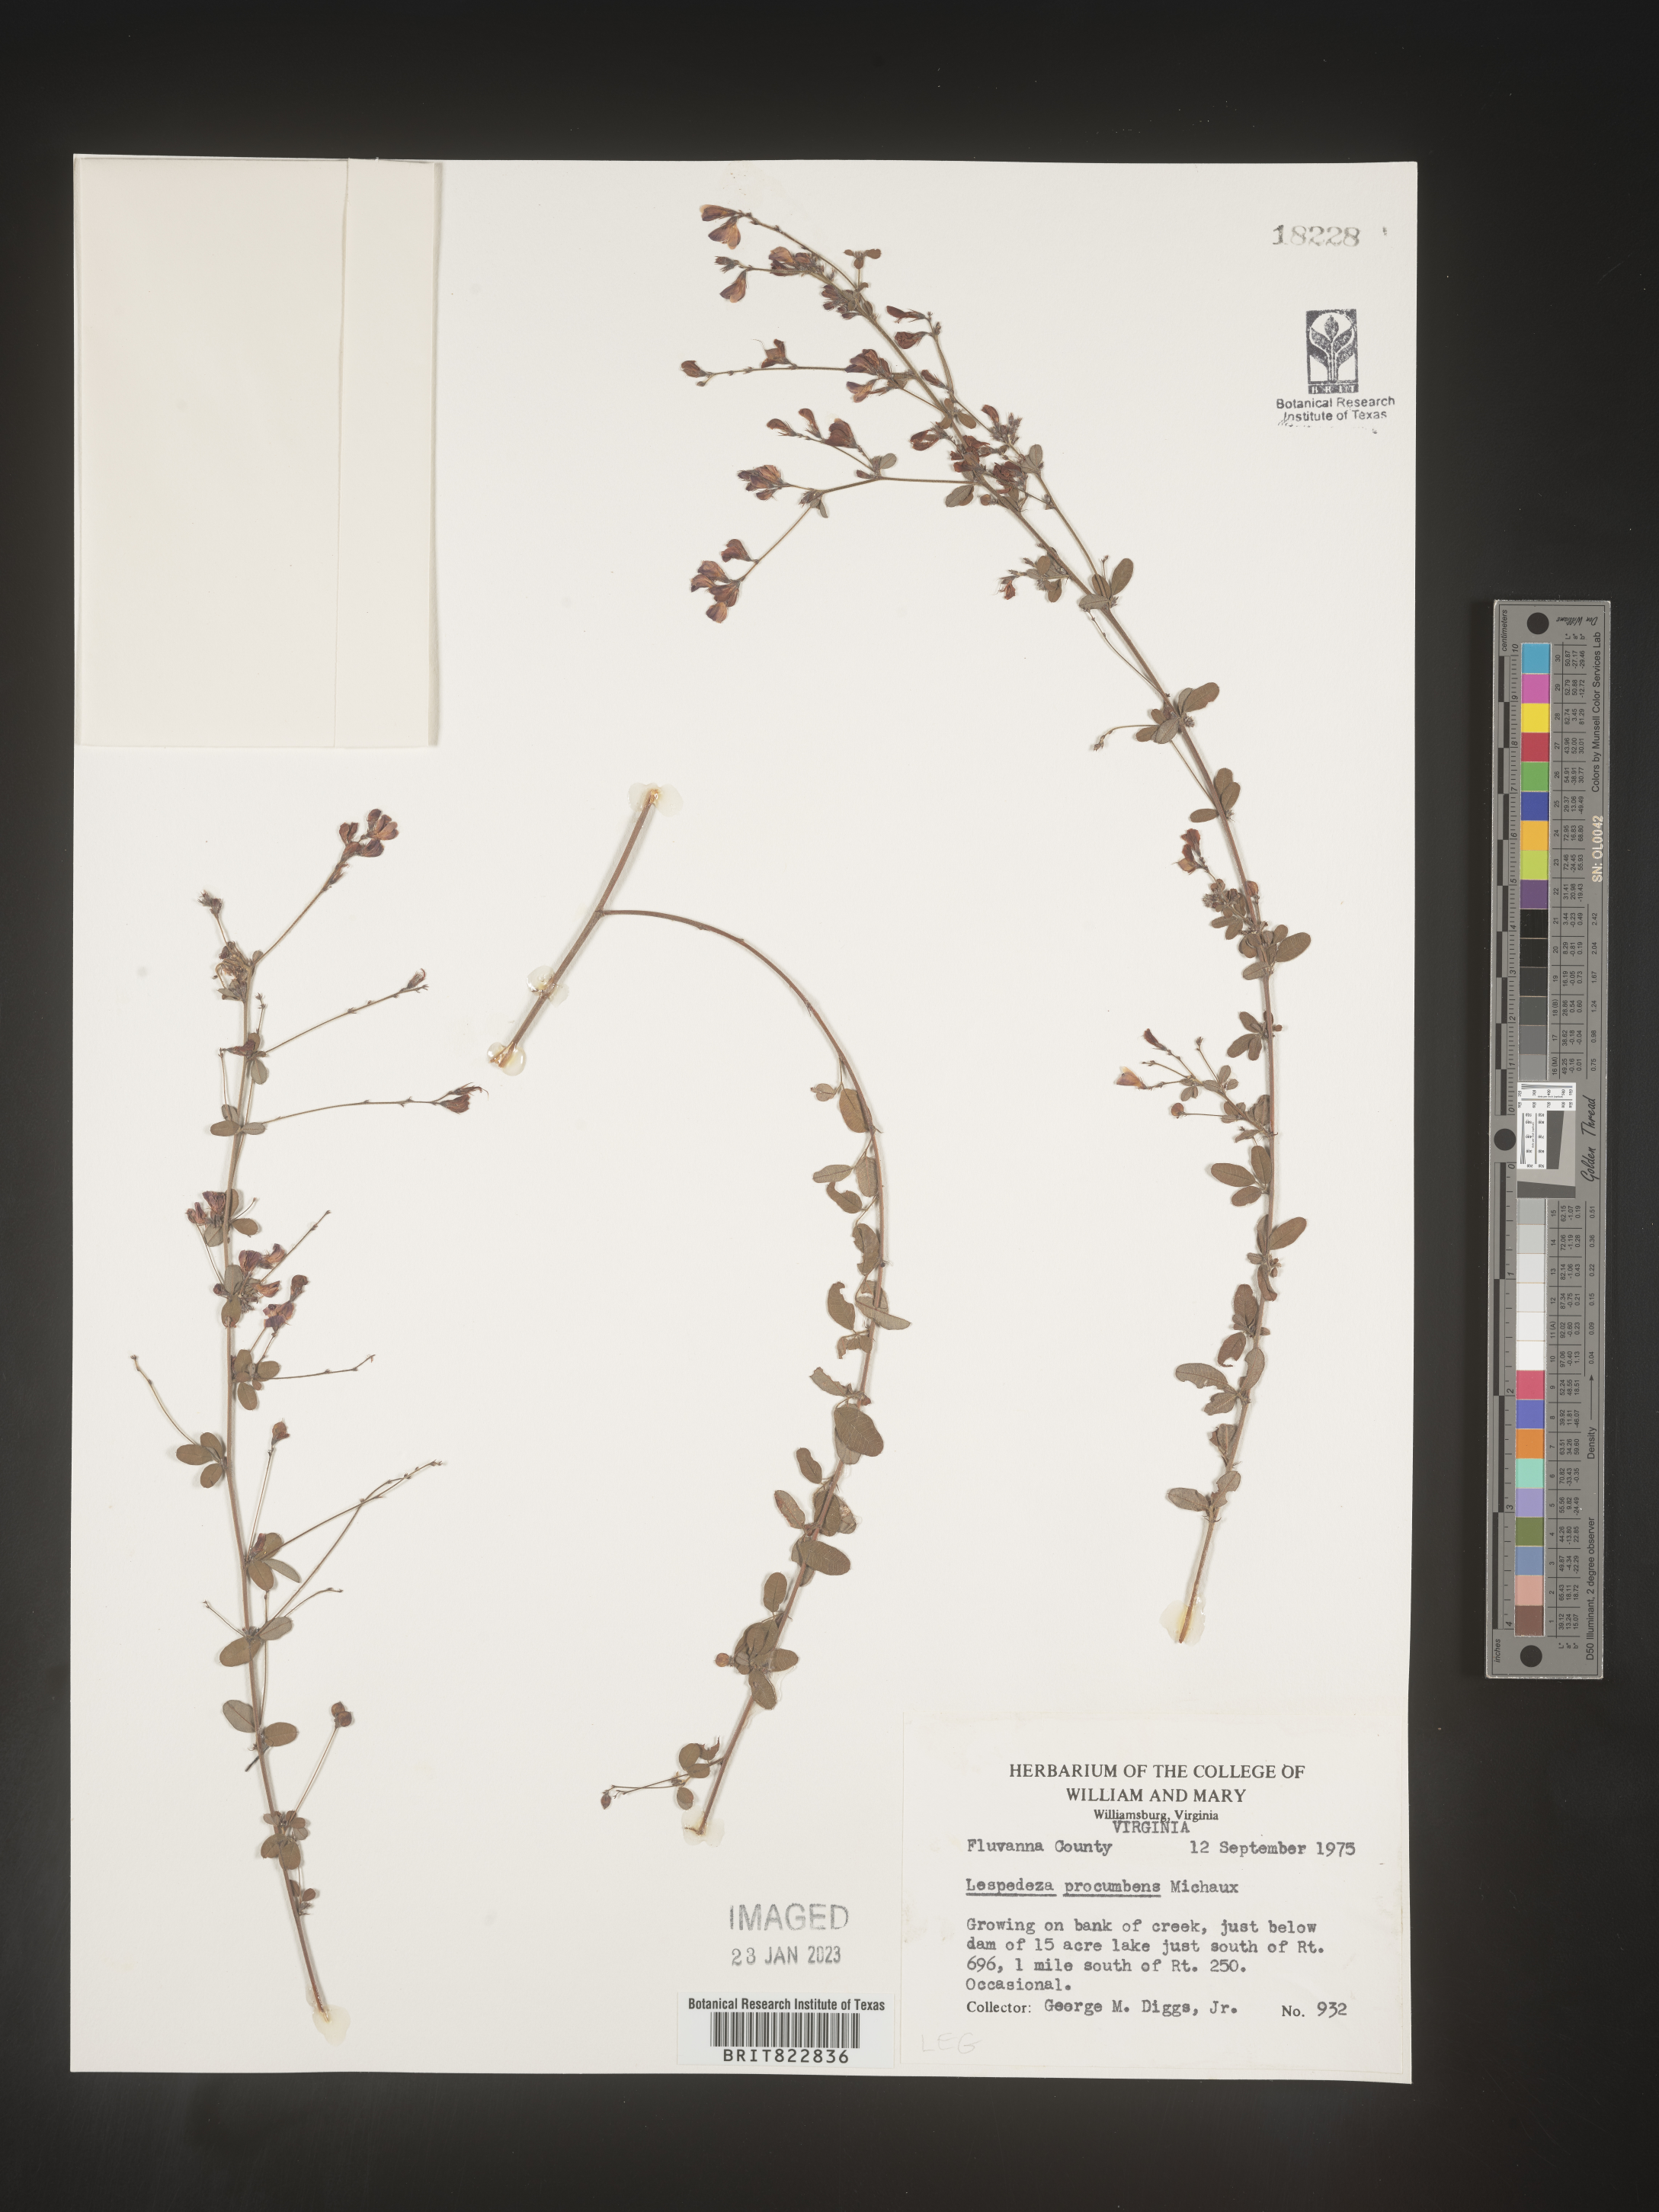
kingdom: Plantae
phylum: Tracheophyta
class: Magnoliopsida
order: Fabales
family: Fabaceae
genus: Lespedeza
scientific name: Lespedeza procumbens
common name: Downy trailing bush-clover
